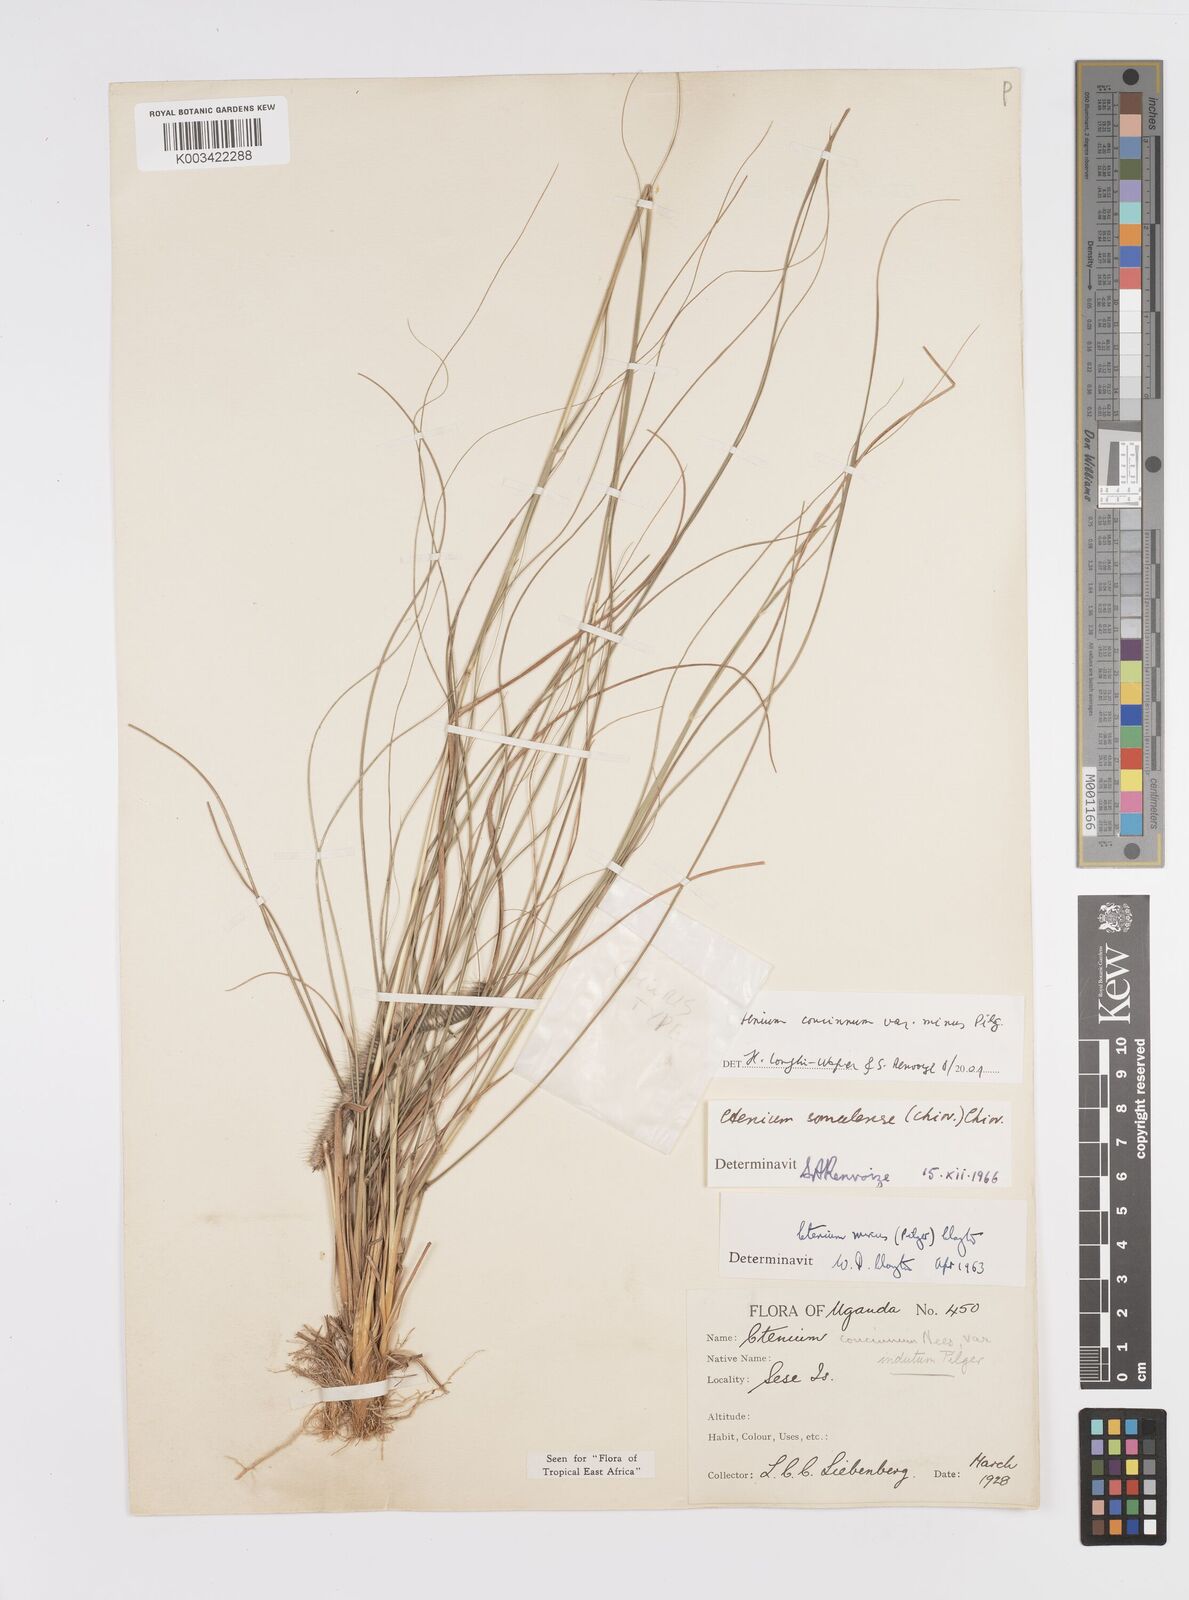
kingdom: Plantae
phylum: Tracheophyta
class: Liliopsida
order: Poales
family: Poaceae
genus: Ctenium
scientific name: Ctenium concinnum
